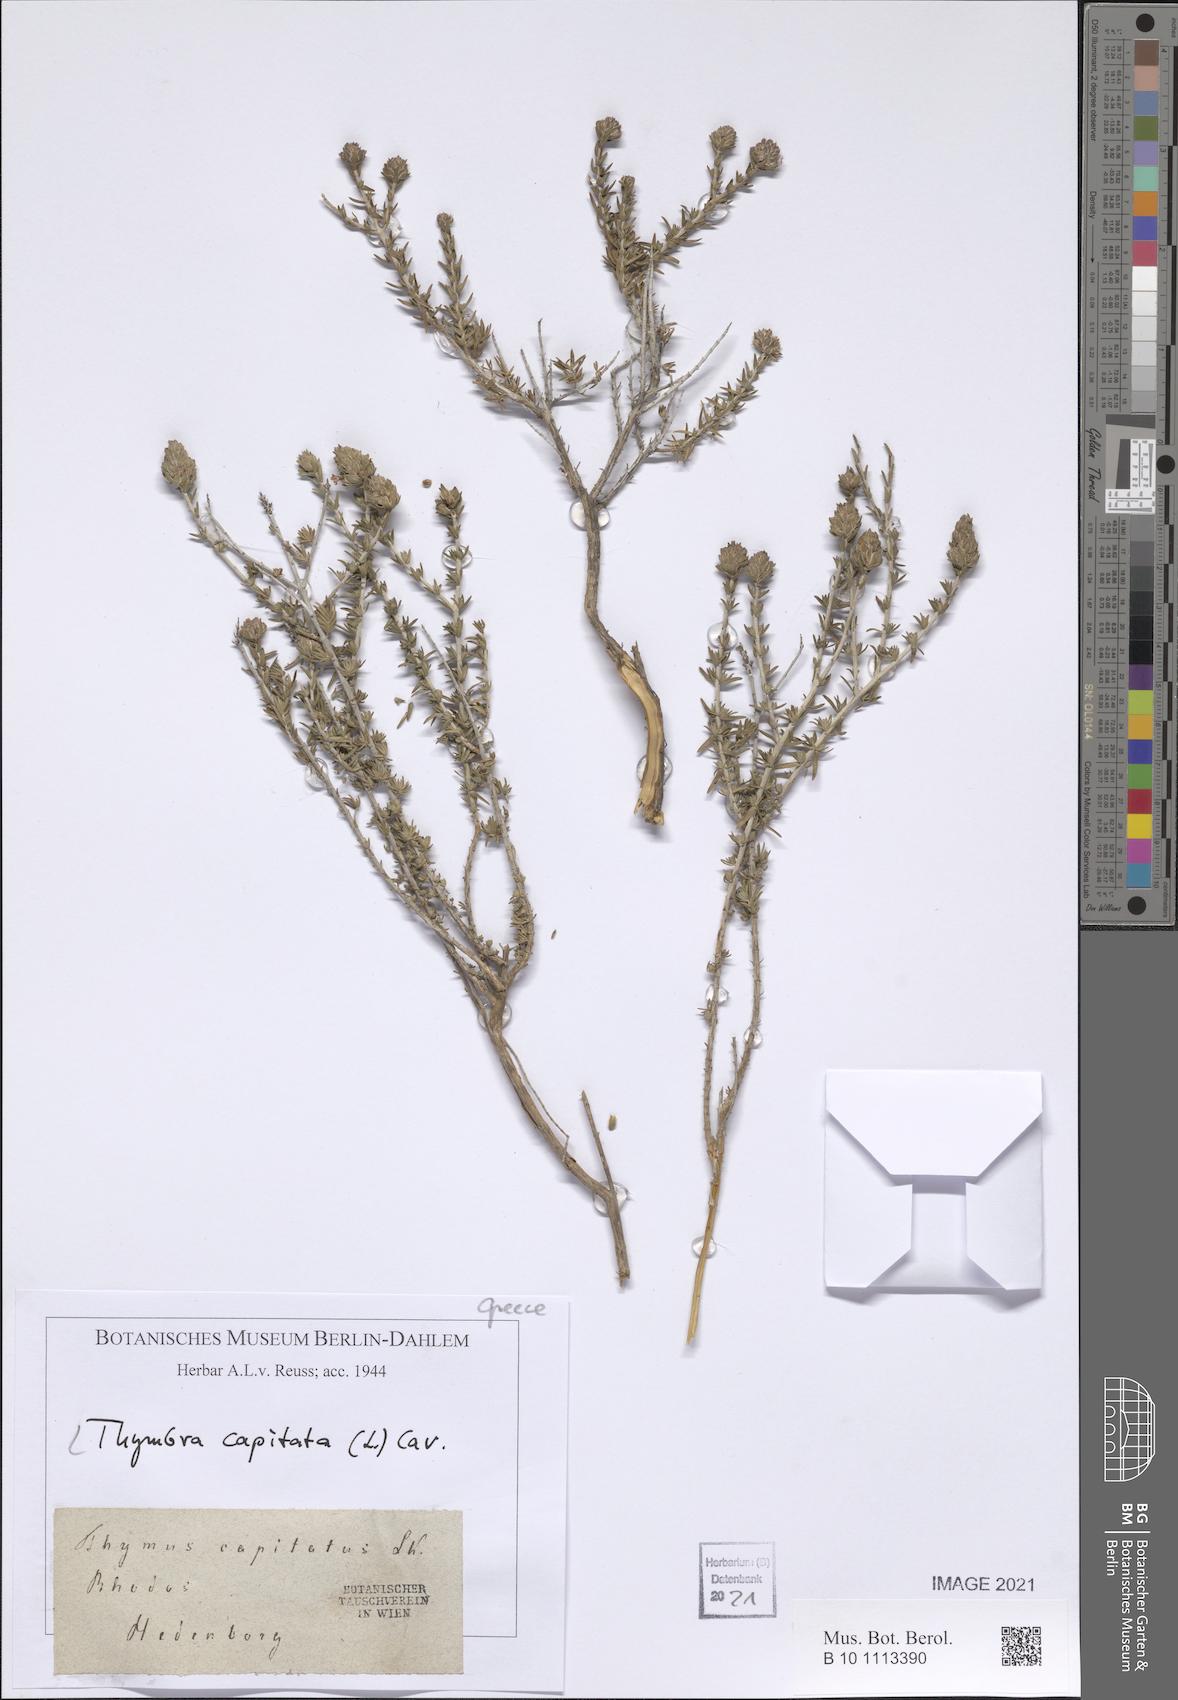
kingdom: Plantae
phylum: Tracheophyta
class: Magnoliopsida
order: Lamiales
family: Lamiaceae
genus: Thymbra
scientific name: Thymbra capitata
